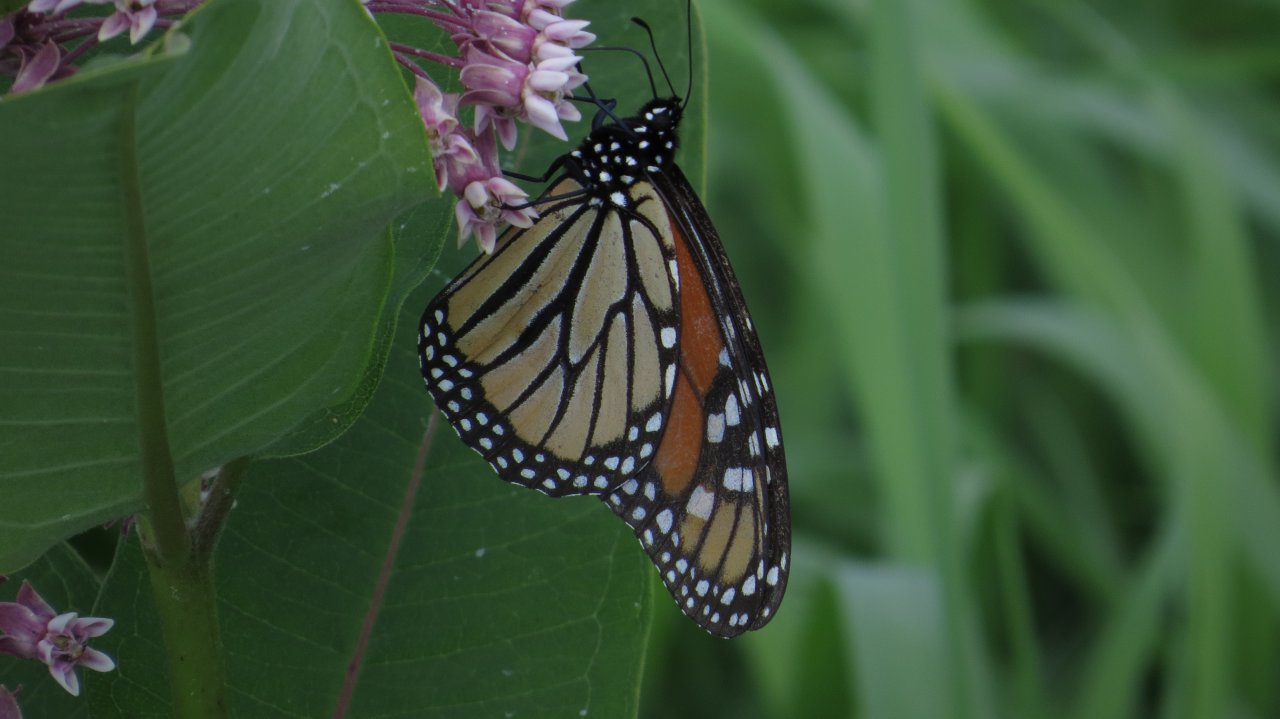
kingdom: Animalia
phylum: Arthropoda
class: Insecta
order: Lepidoptera
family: Nymphalidae
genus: Danaus
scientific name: Danaus plexippus
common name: Monarch
